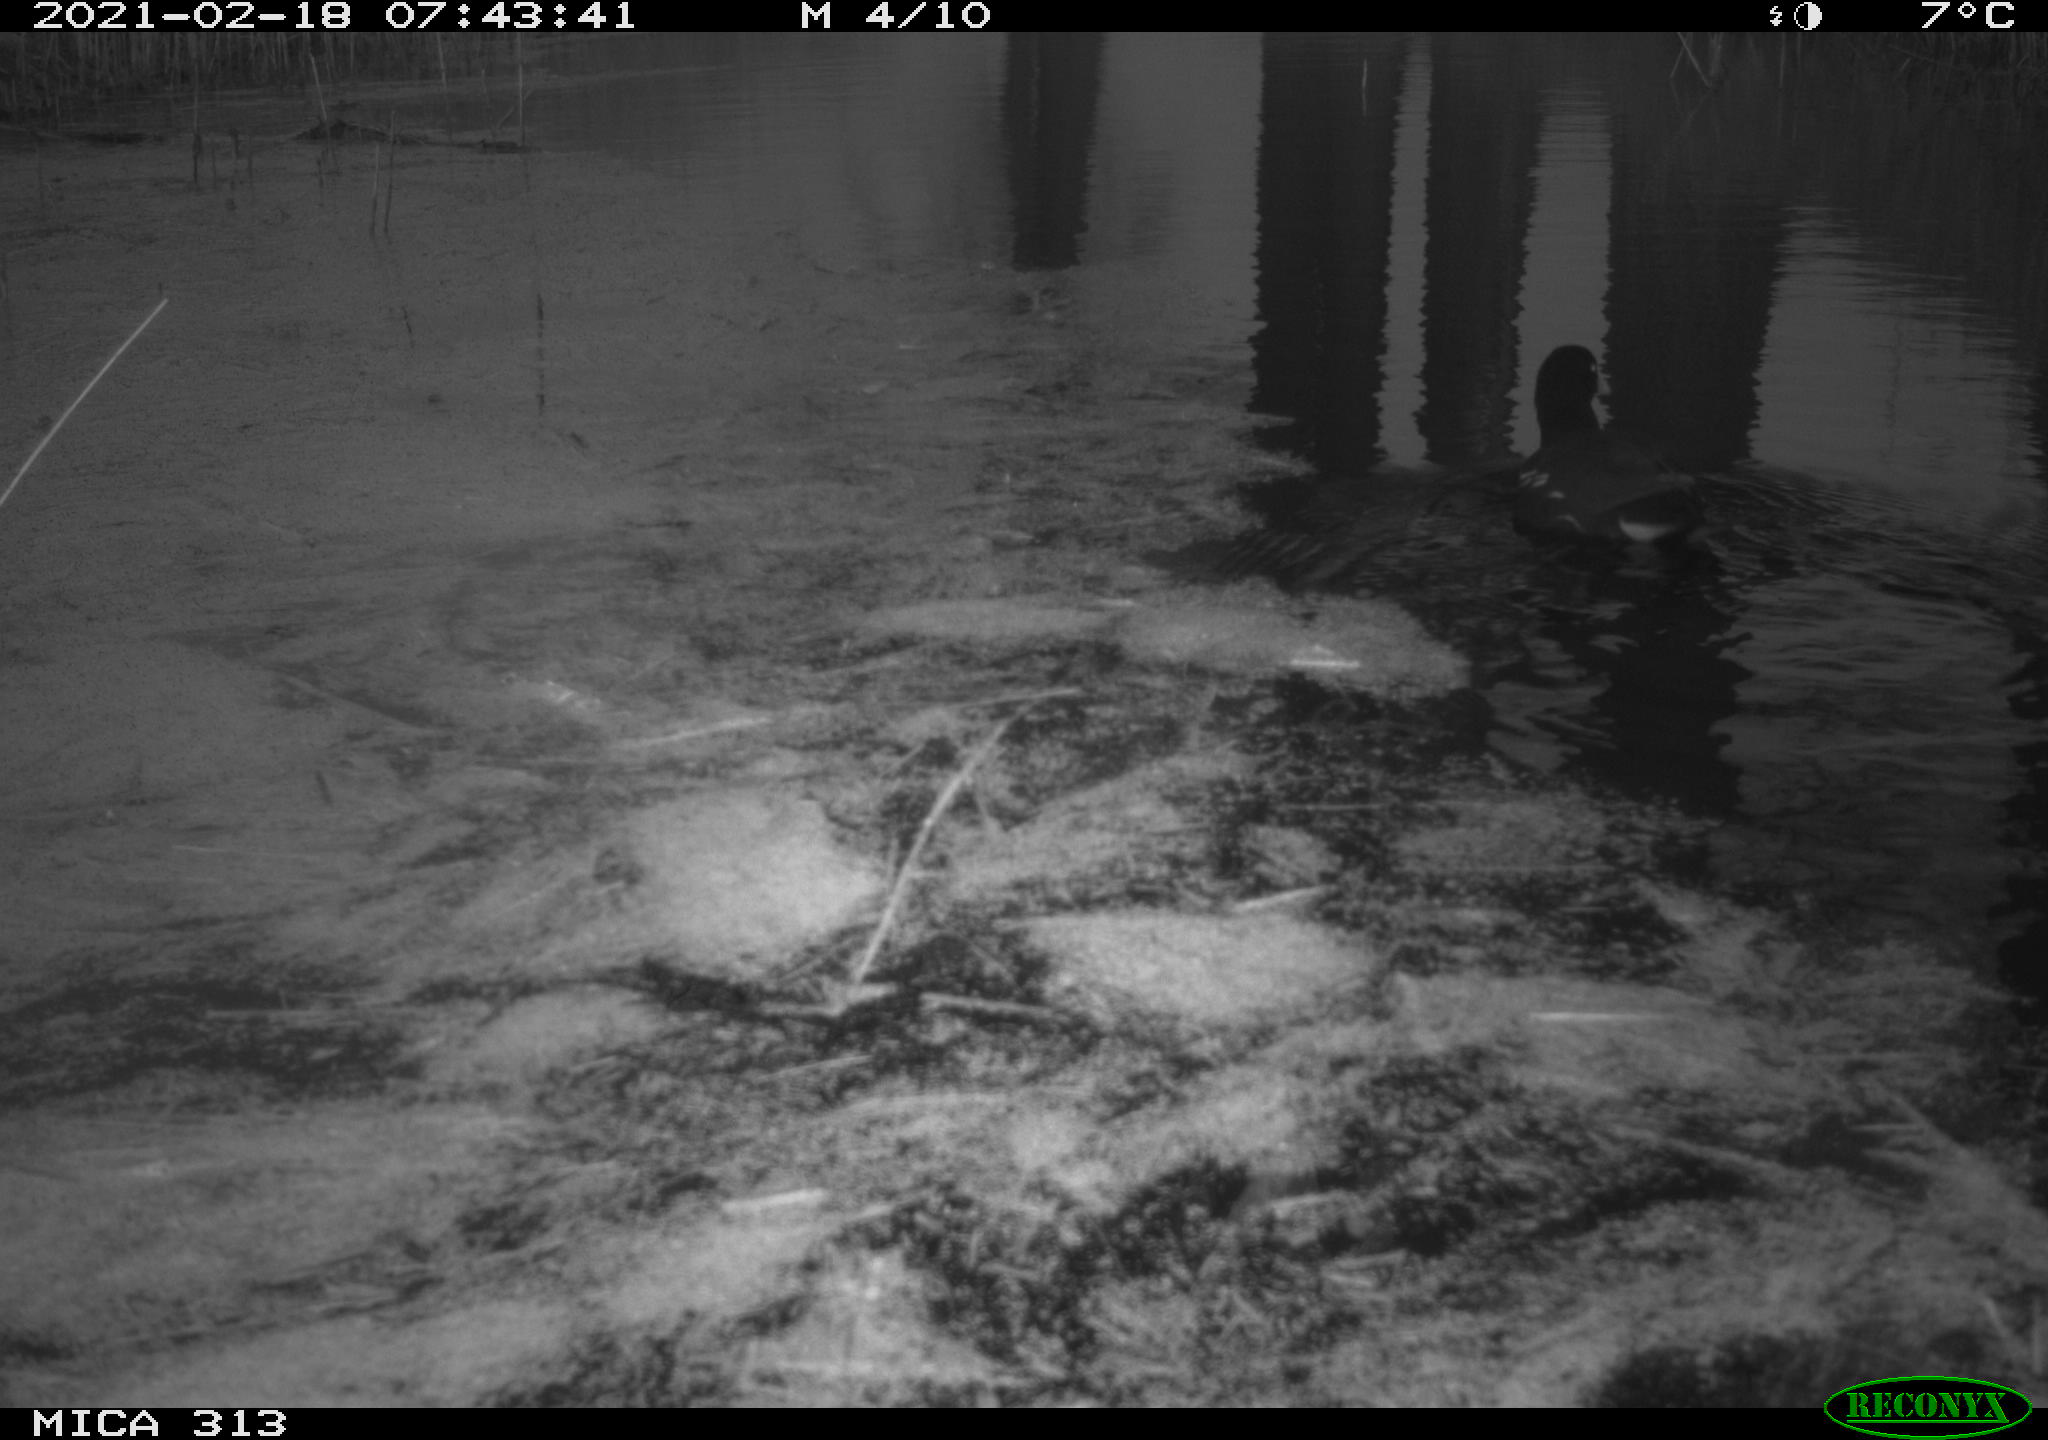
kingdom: Animalia
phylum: Chordata
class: Aves
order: Anseriformes
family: Anatidae
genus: Anas
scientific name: Anas
